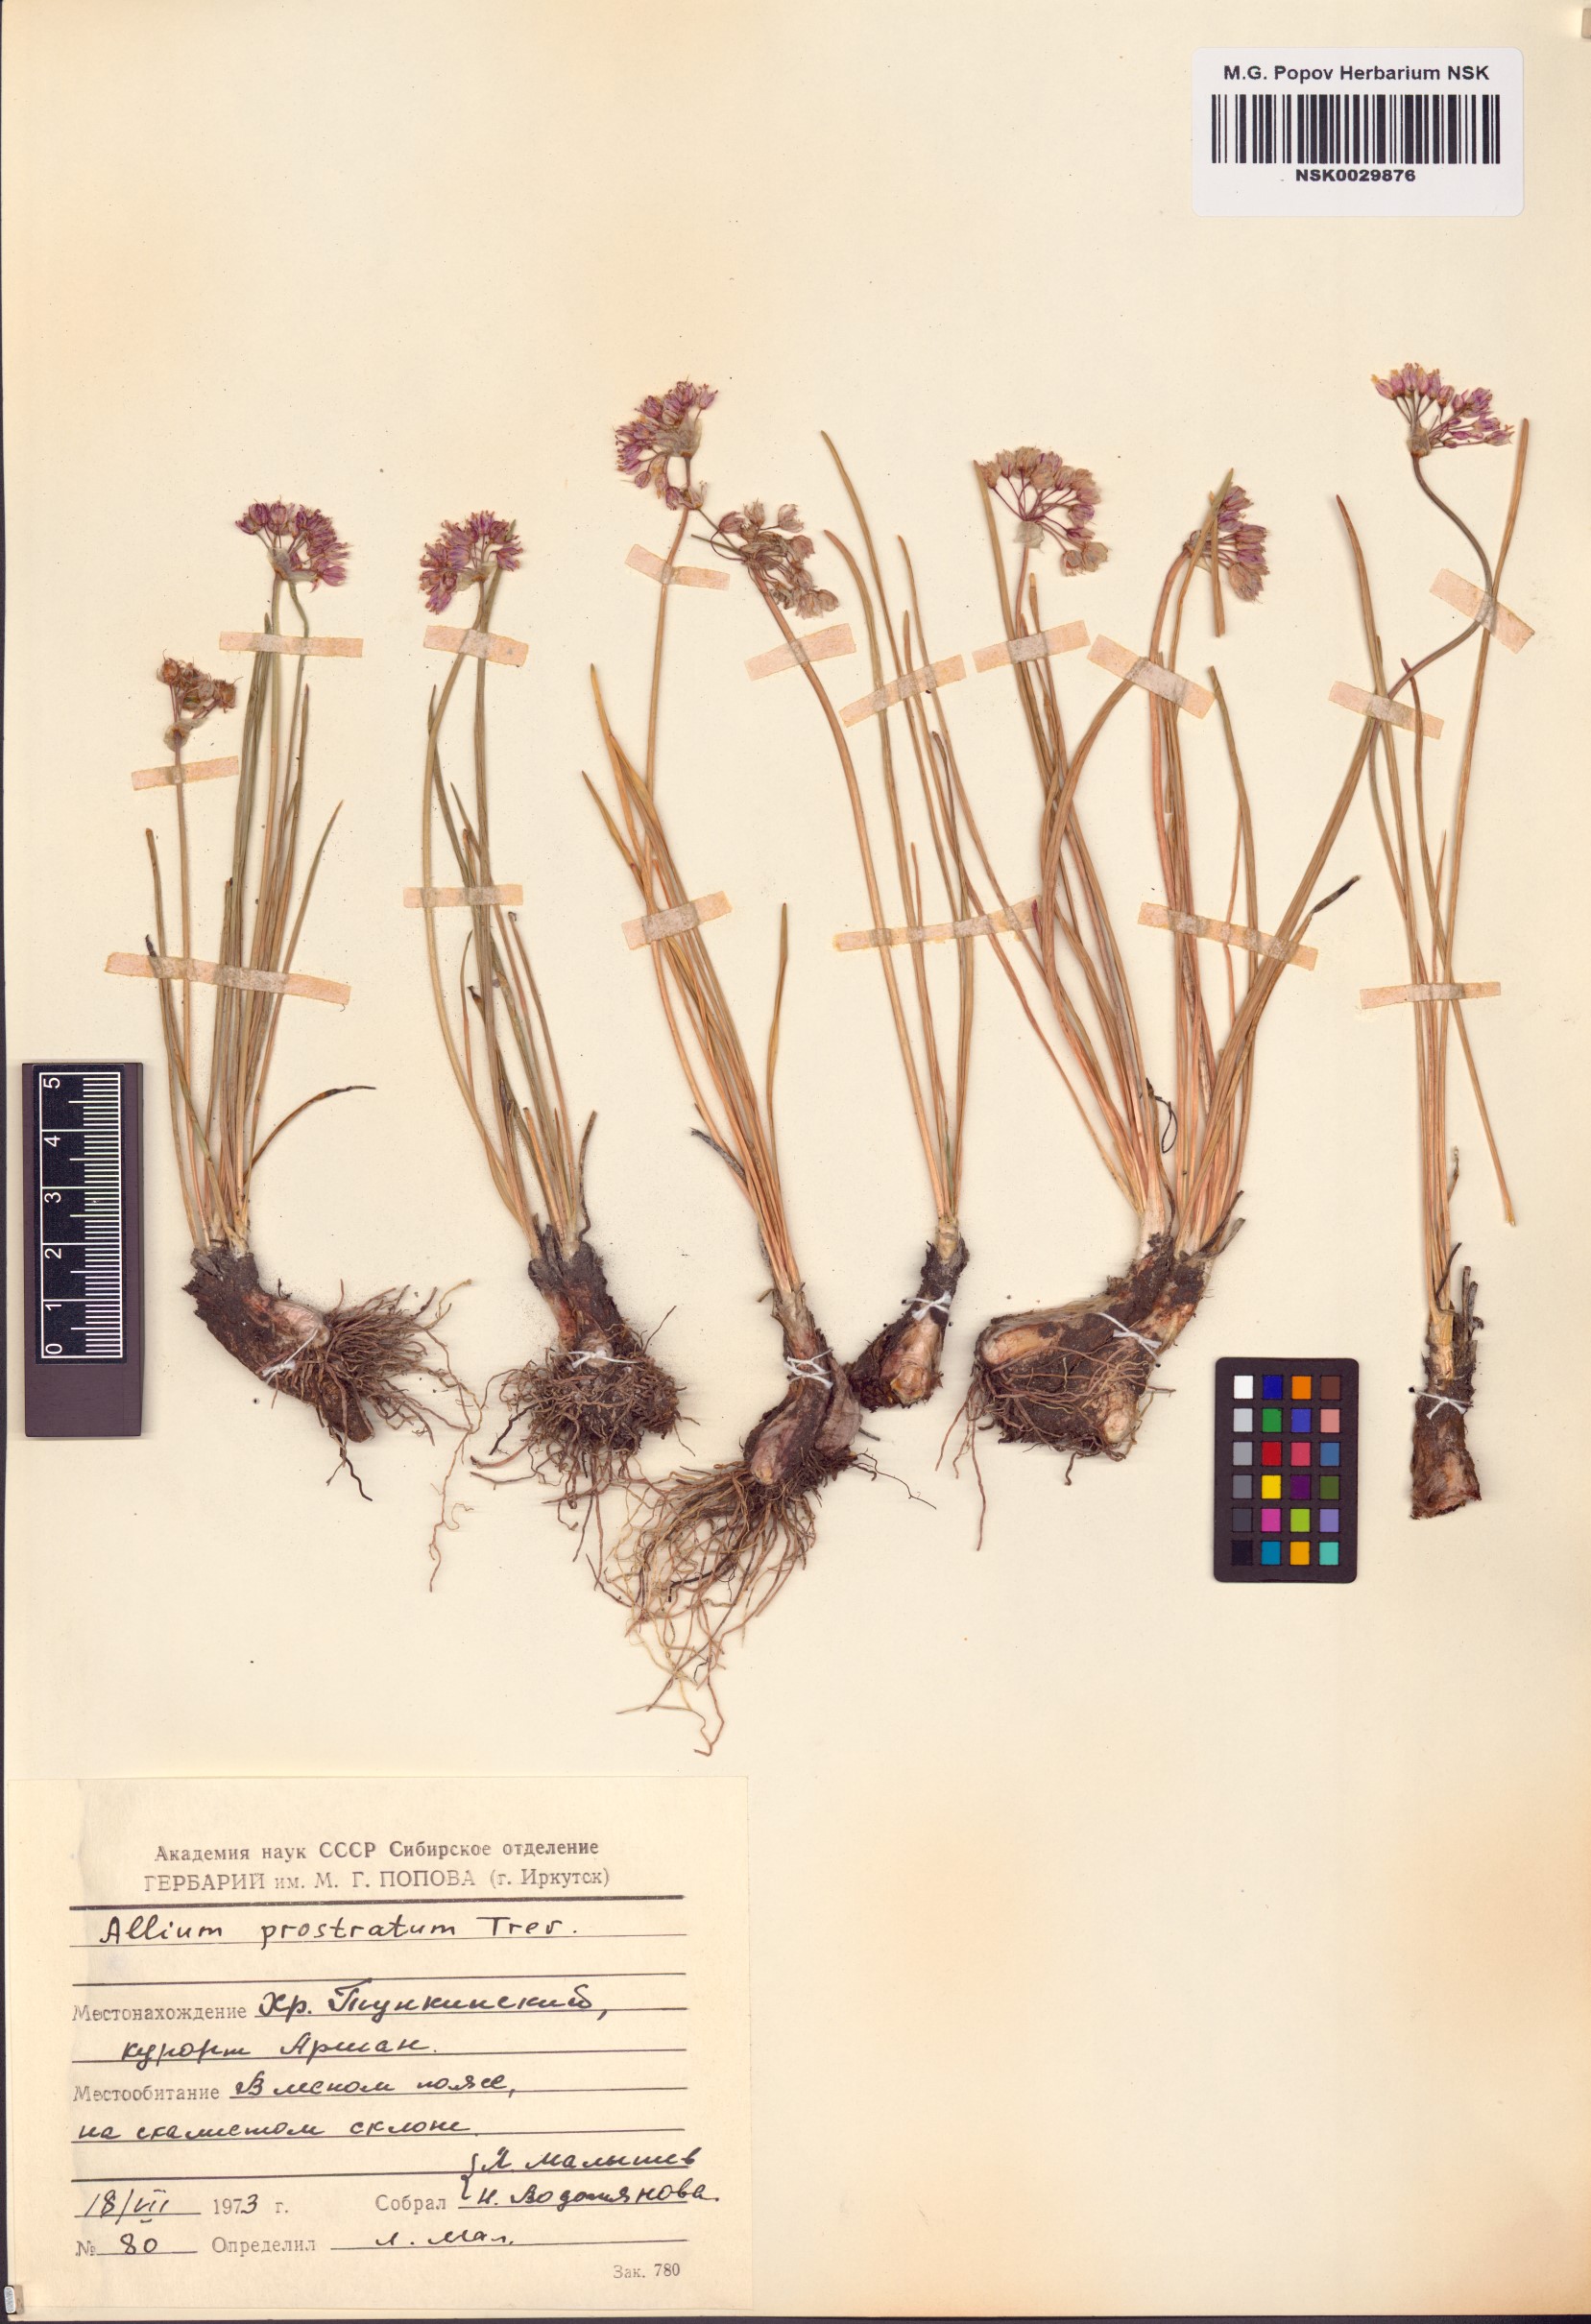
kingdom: Plantae
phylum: Tracheophyta
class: Liliopsida
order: Asparagales
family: Amaryllidaceae
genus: Allium
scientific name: Allium prostratum
